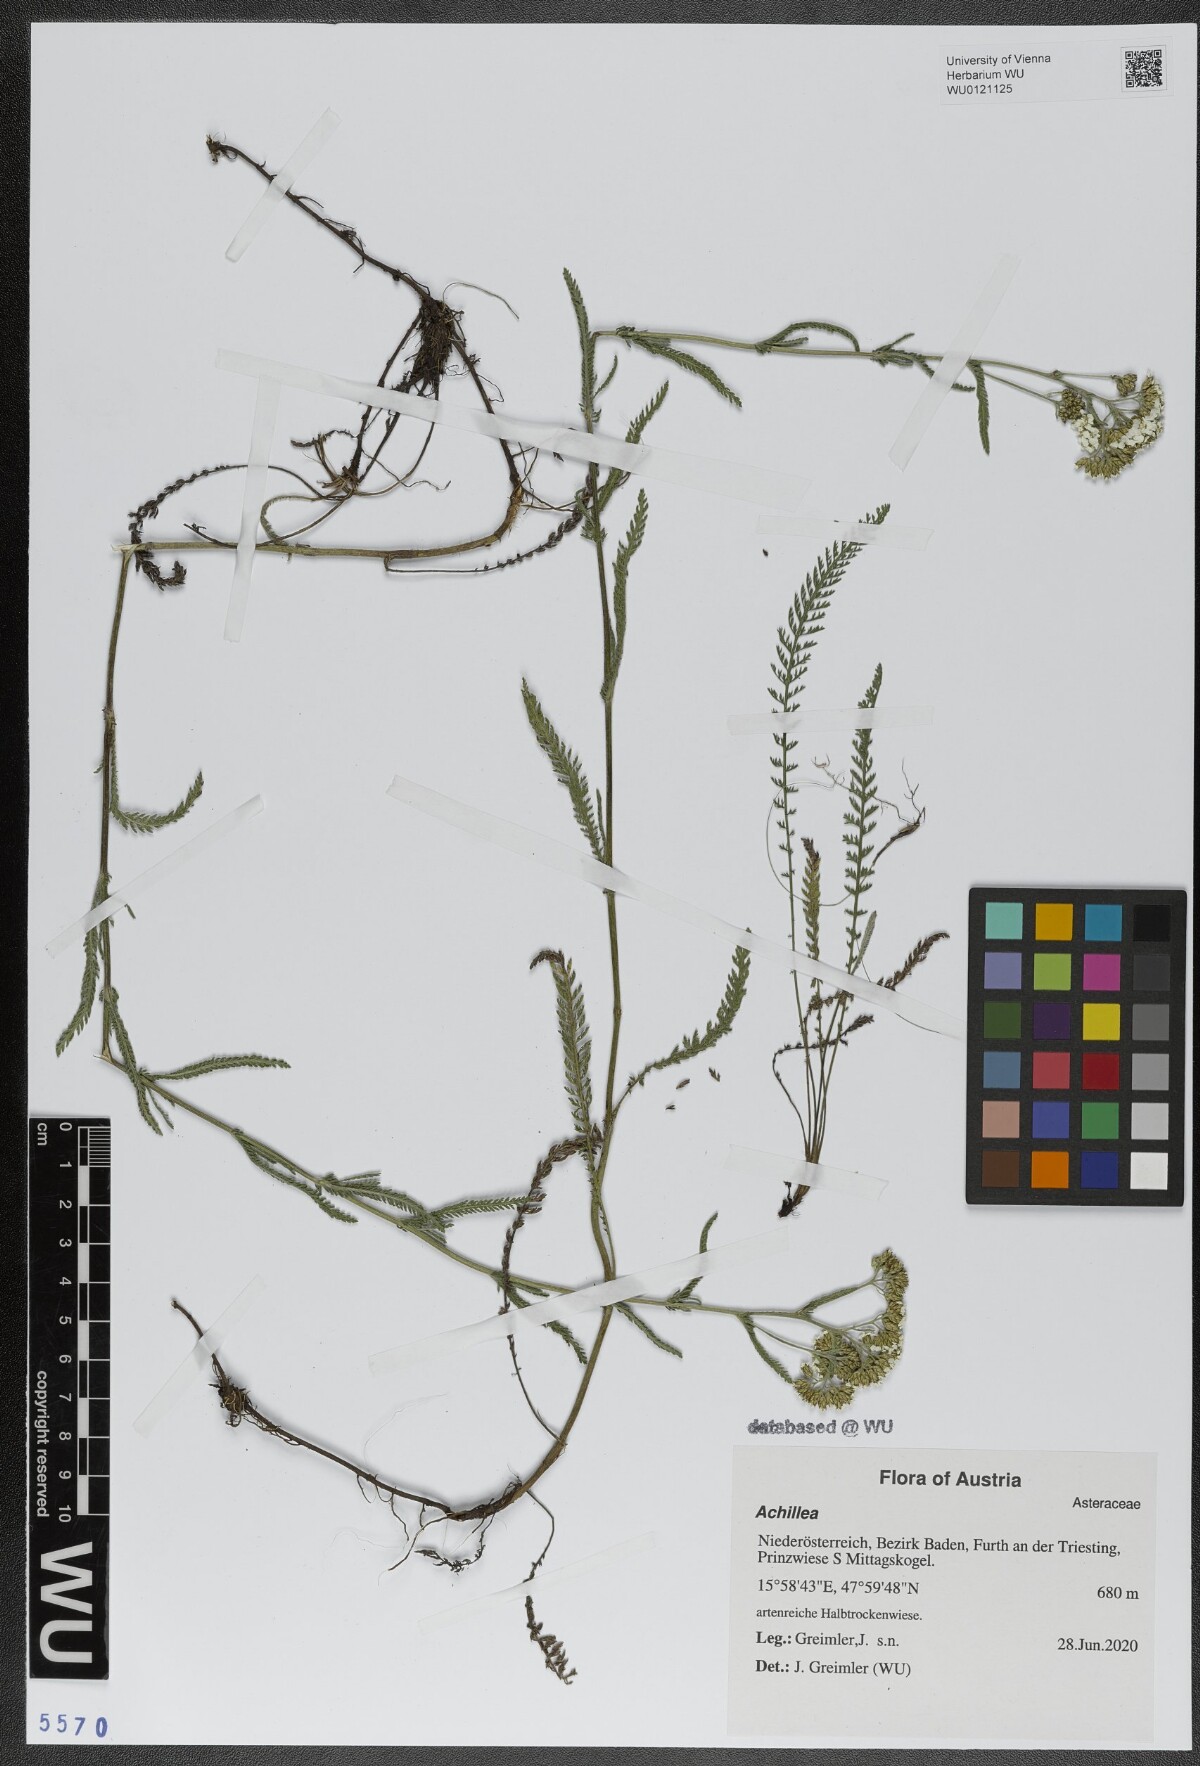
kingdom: Plantae
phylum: Tracheophyta
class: Magnoliopsida
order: Asterales
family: Asteraceae
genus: Achillea
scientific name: Achillea
